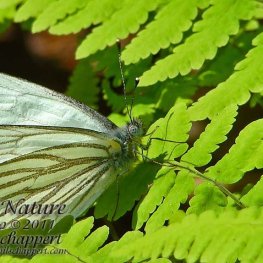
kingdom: Animalia
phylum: Arthropoda
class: Insecta
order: Lepidoptera
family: Pieridae
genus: Pieris
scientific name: Pieris oleracea
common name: Mustard White
